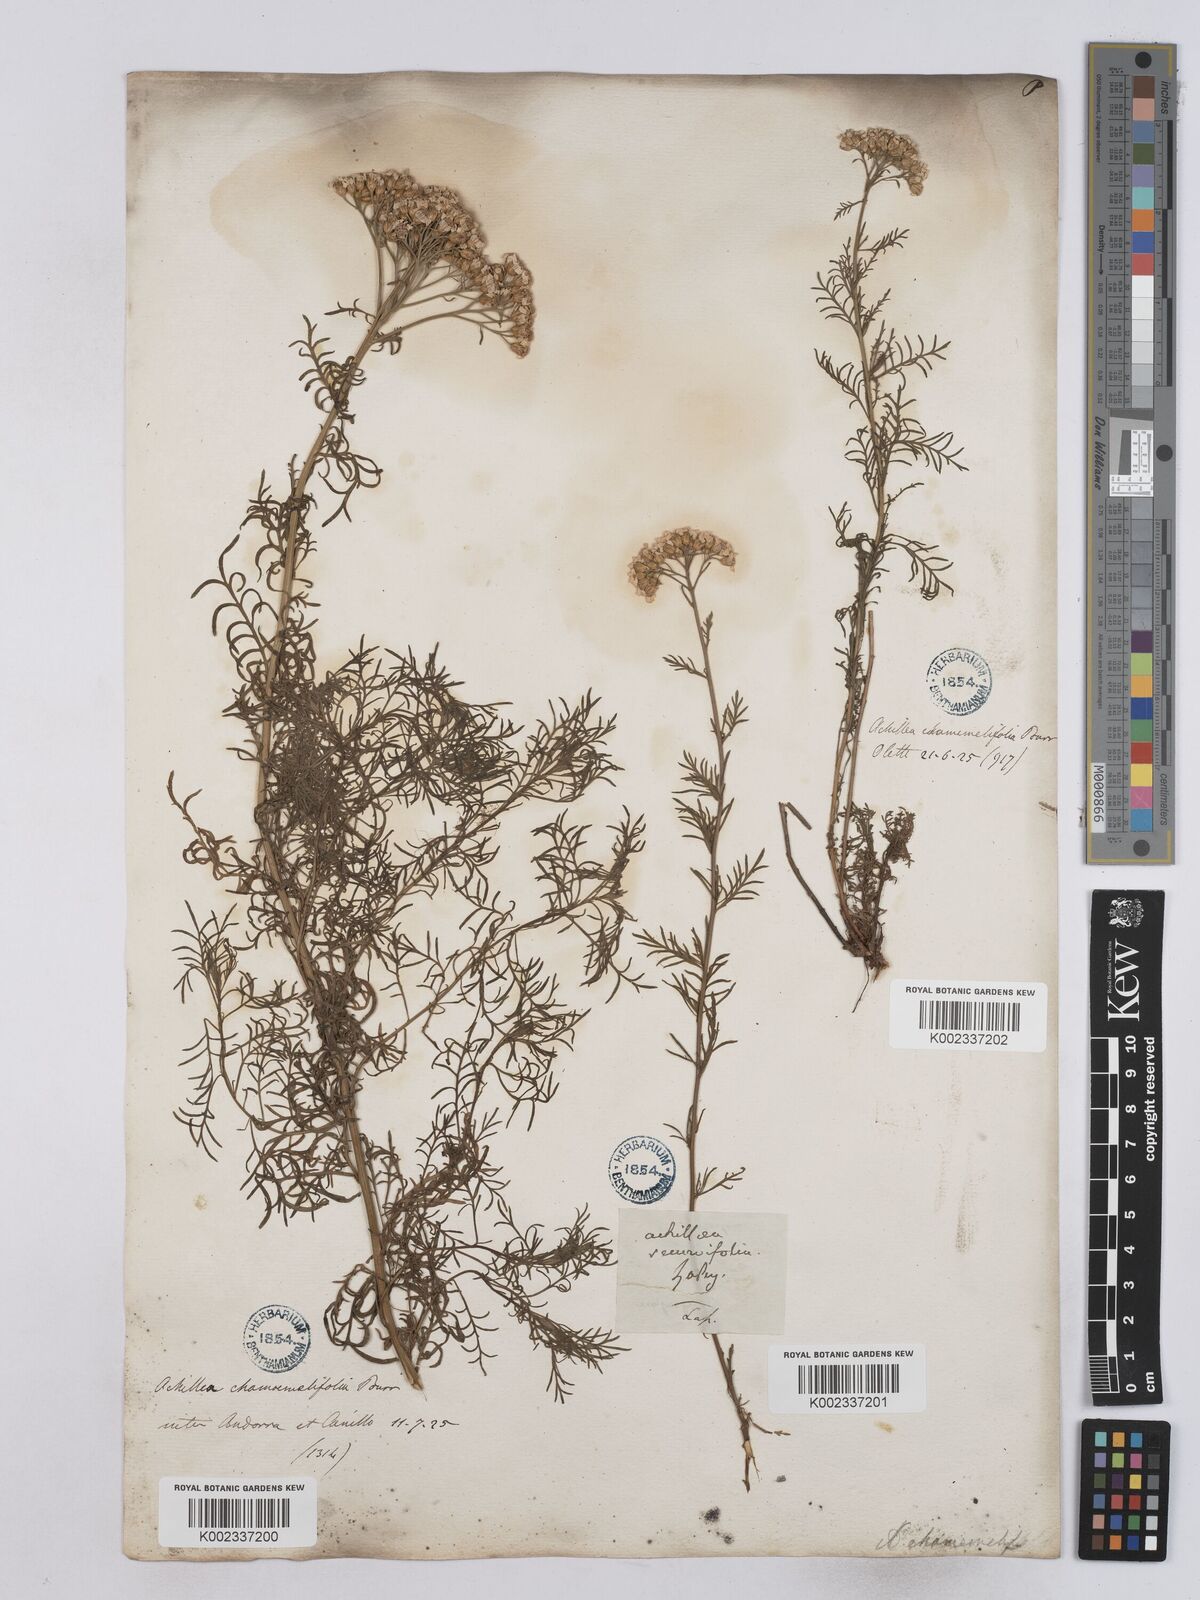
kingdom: Plantae
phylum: Tracheophyta
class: Magnoliopsida
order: Asterales
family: Asteraceae
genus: Achillea
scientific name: Achillea chamaemelifolia
